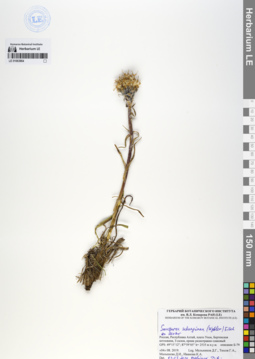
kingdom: Plantae
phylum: Tracheophyta
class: Magnoliopsida
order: Asterales
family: Asteraceae
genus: Saussurea
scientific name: Saussurea schanginiana
